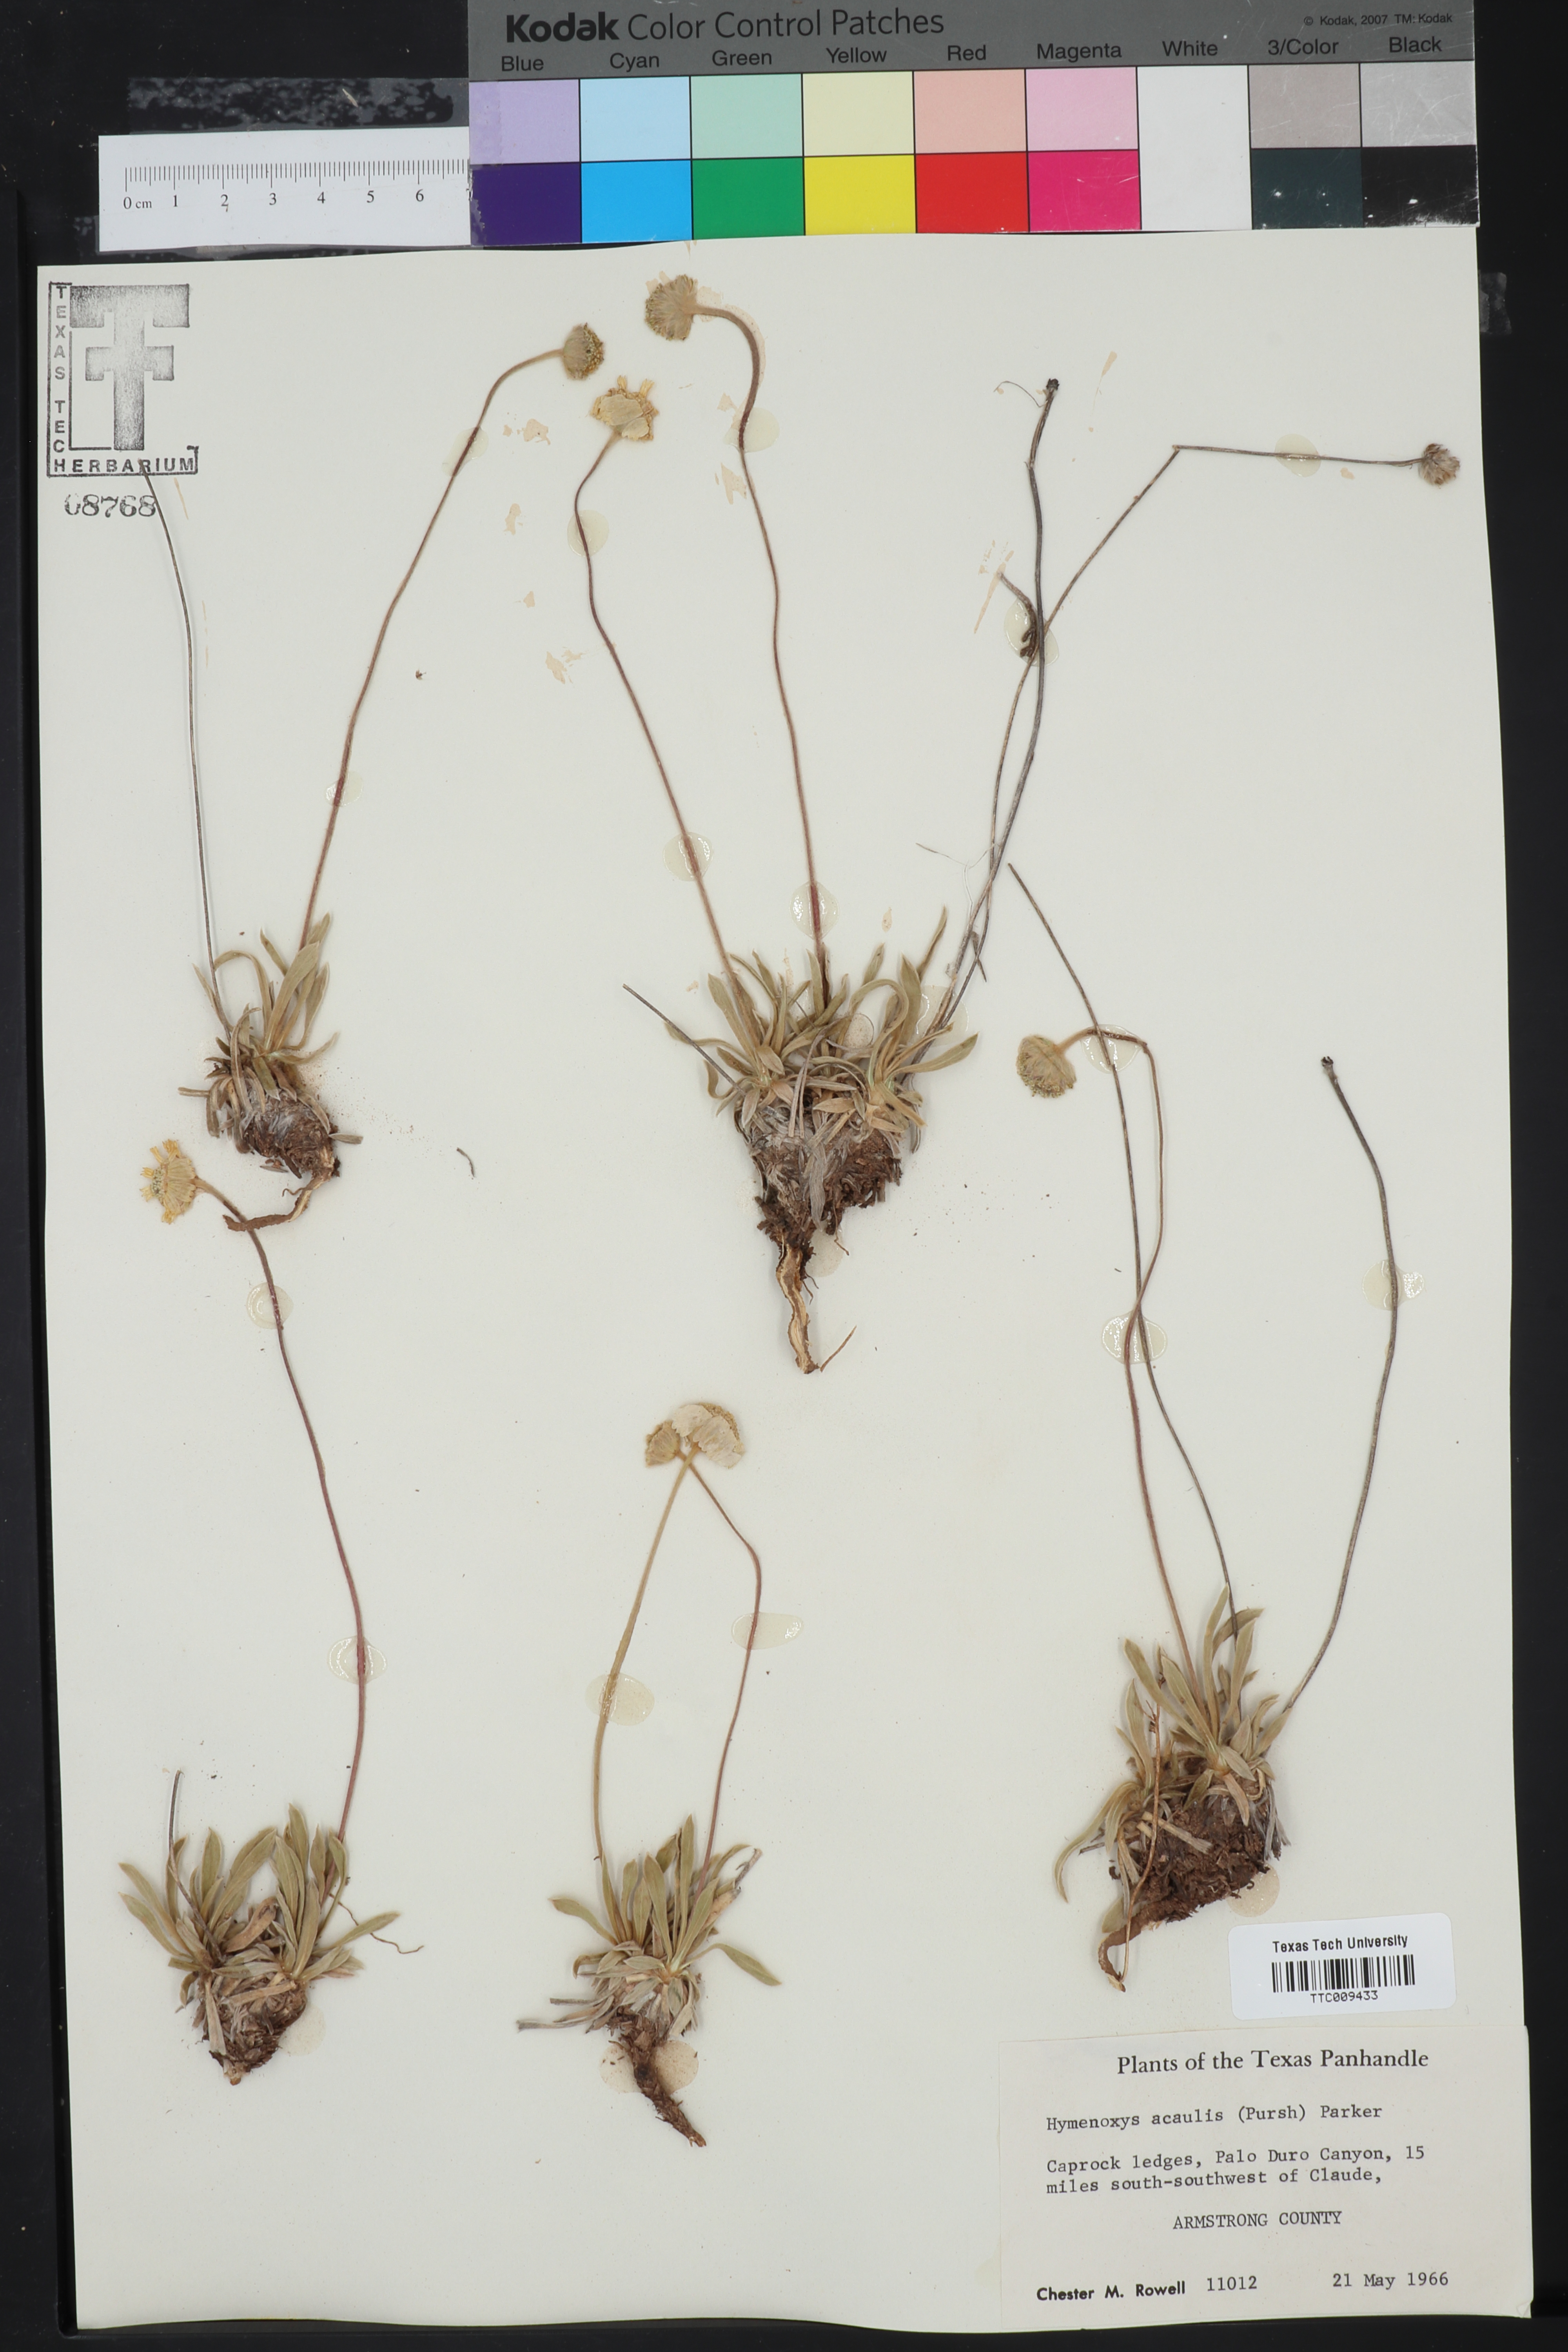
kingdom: Plantae
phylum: Tracheophyta
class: Magnoliopsida
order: Asterales
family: Asteraceae
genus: Tetraneuris
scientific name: Tetraneuris acaulis
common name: Butte marigold
